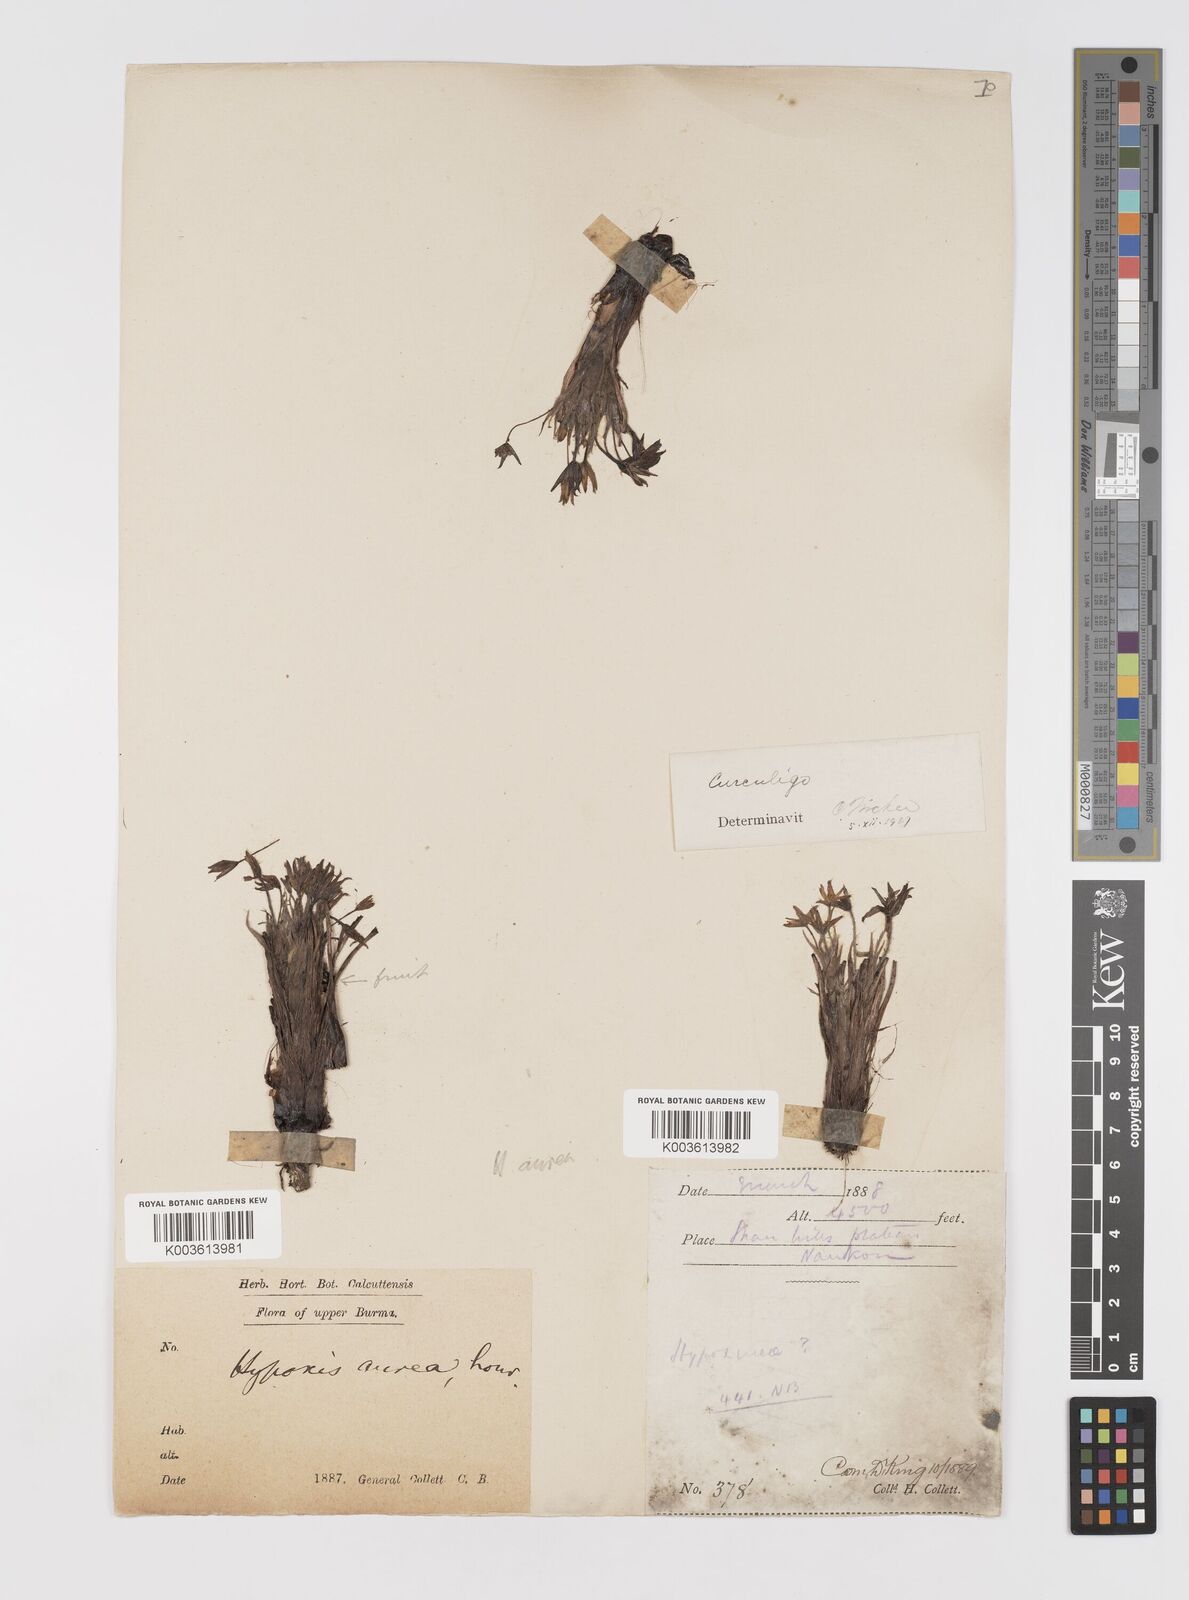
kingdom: Plantae
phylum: Tracheophyta
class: Liliopsida
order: Asparagales
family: Hypoxidaceae
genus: Curculigo
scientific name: Curculigo orchioides
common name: Golden eye-grass
